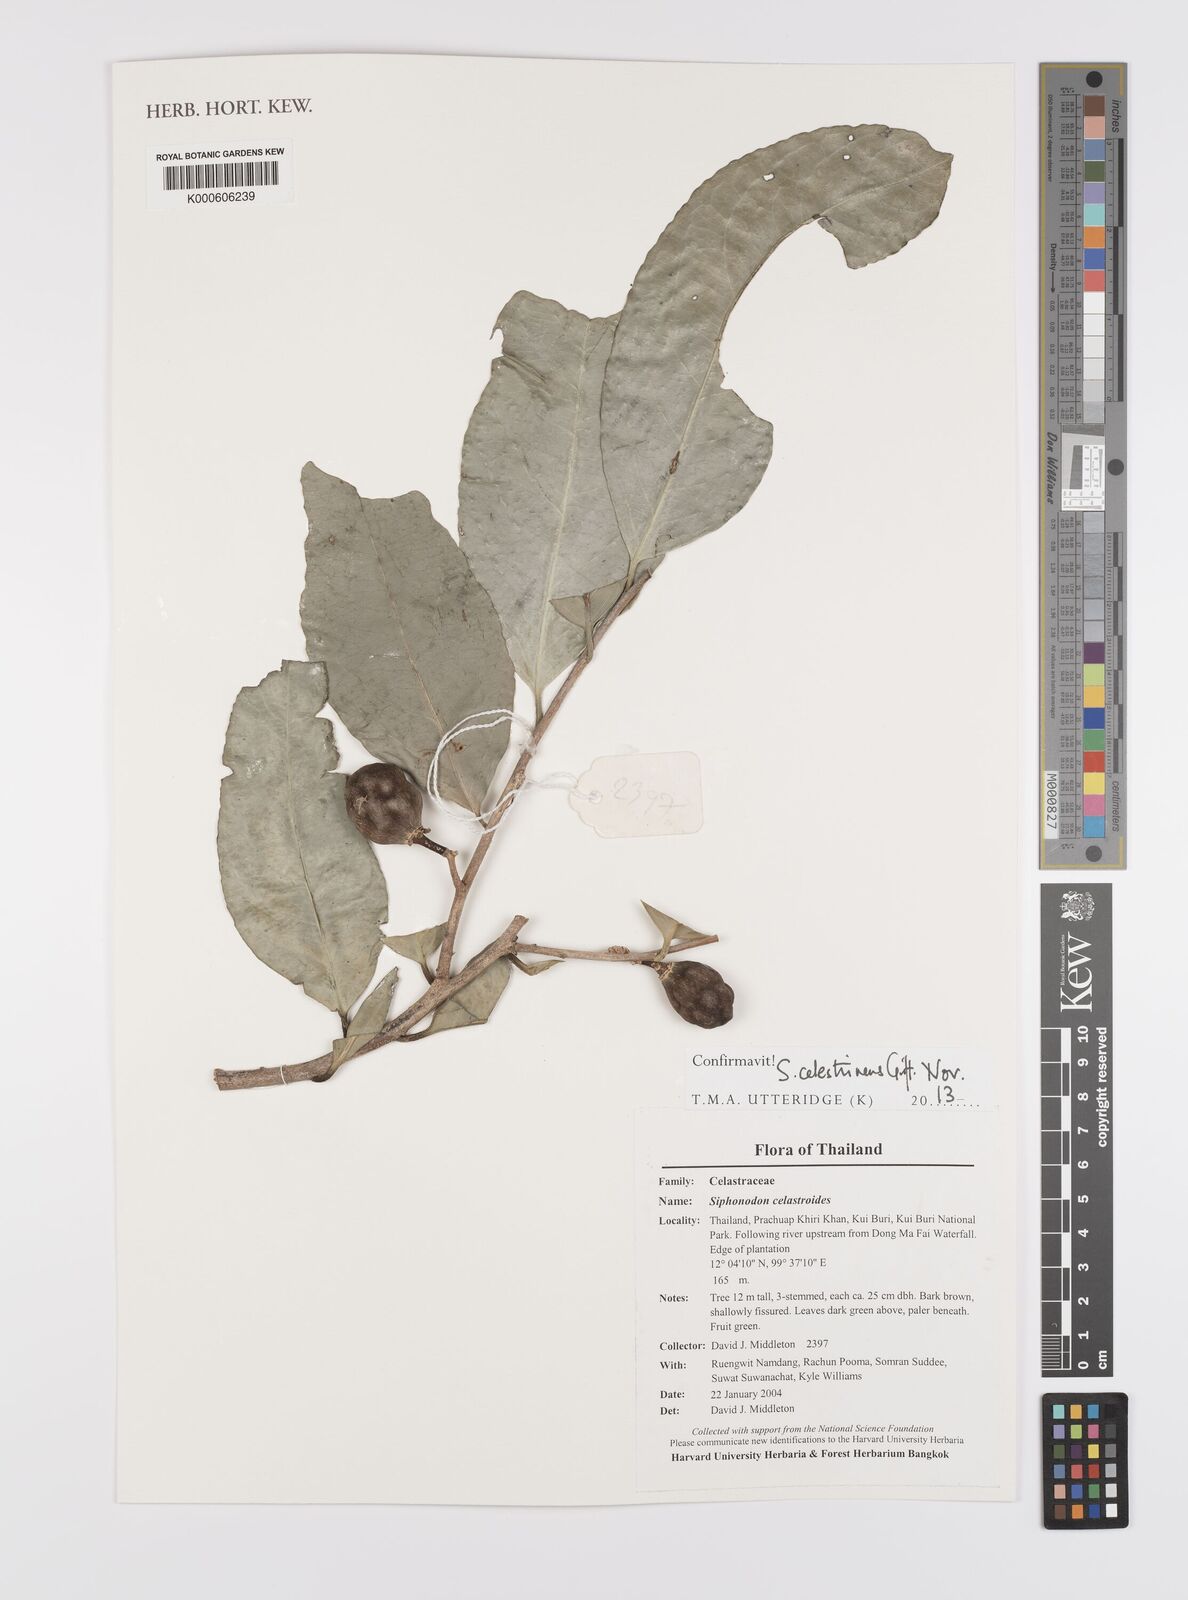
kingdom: Plantae
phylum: Tracheophyta
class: Magnoliopsida
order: Celastrales
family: Celastraceae
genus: Siphonodon
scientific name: Siphonodon celastrineus
